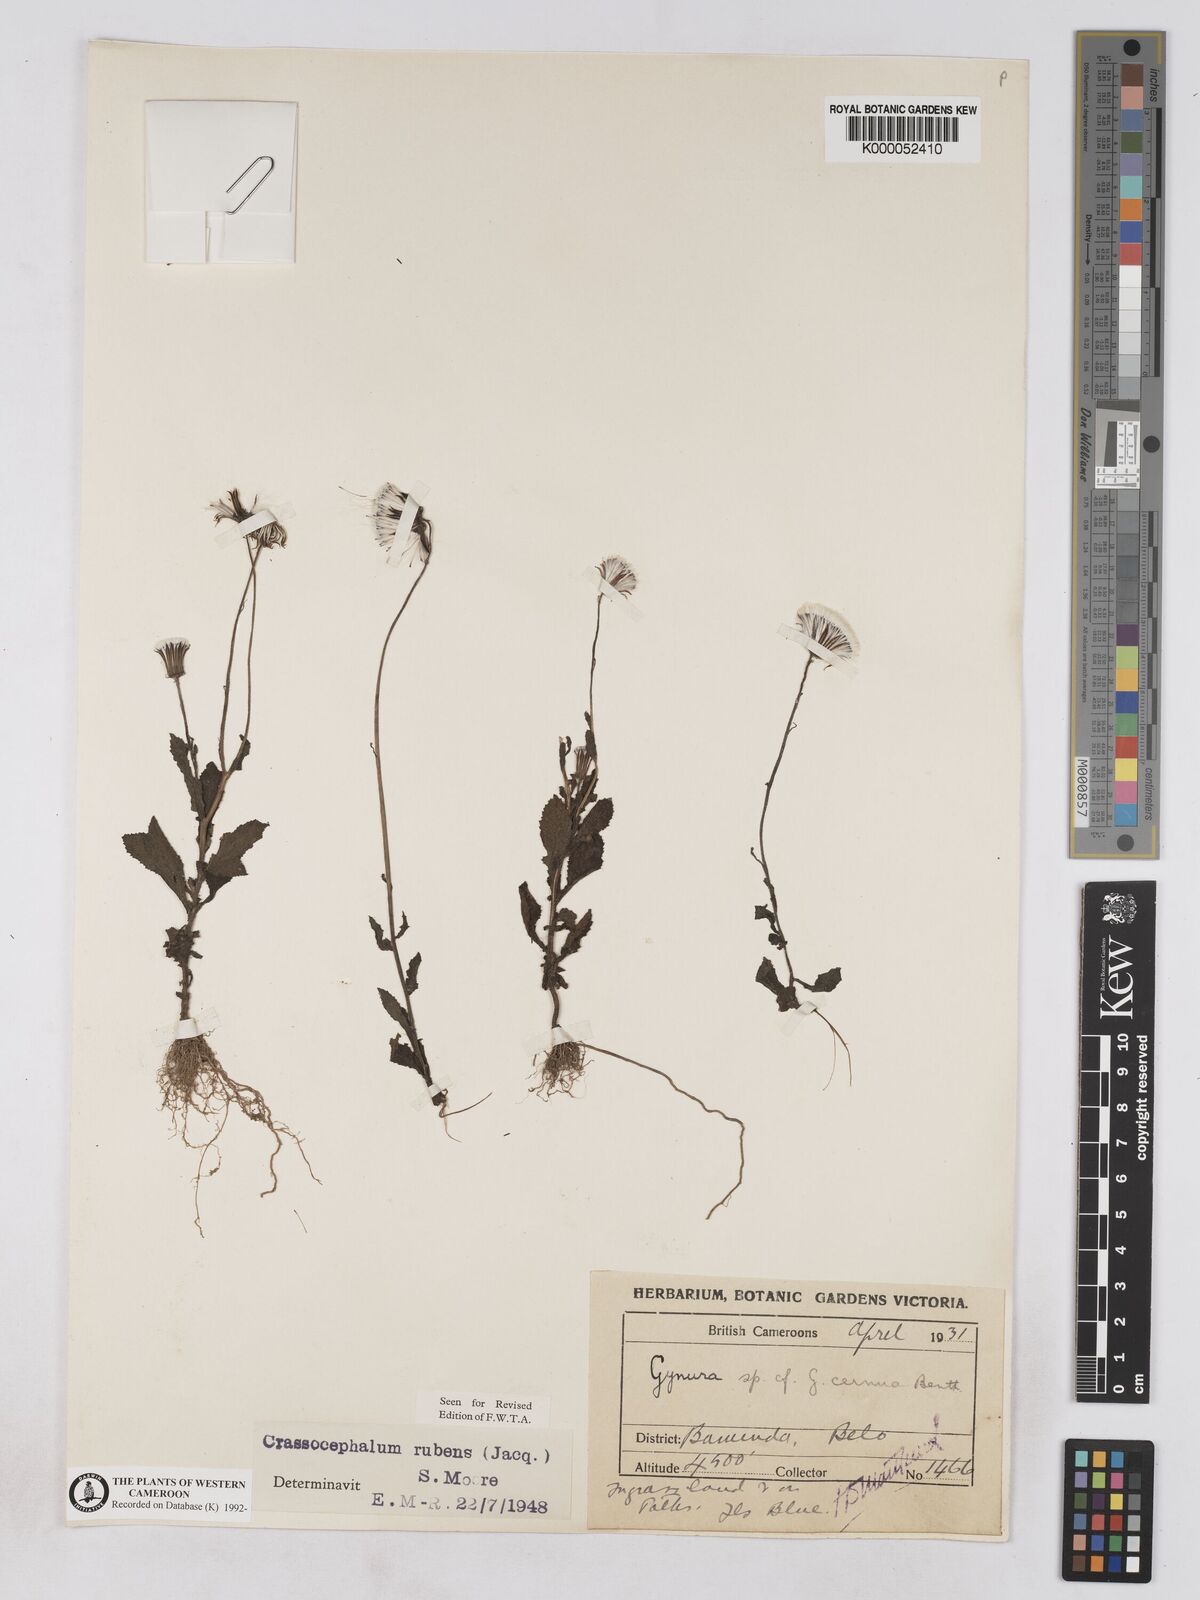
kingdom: Plantae
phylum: Tracheophyta
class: Magnoliopsida
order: Asterales
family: Asteraceae
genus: Crassocephalum
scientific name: Crassocephalum rubens
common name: Yoruban bologi
